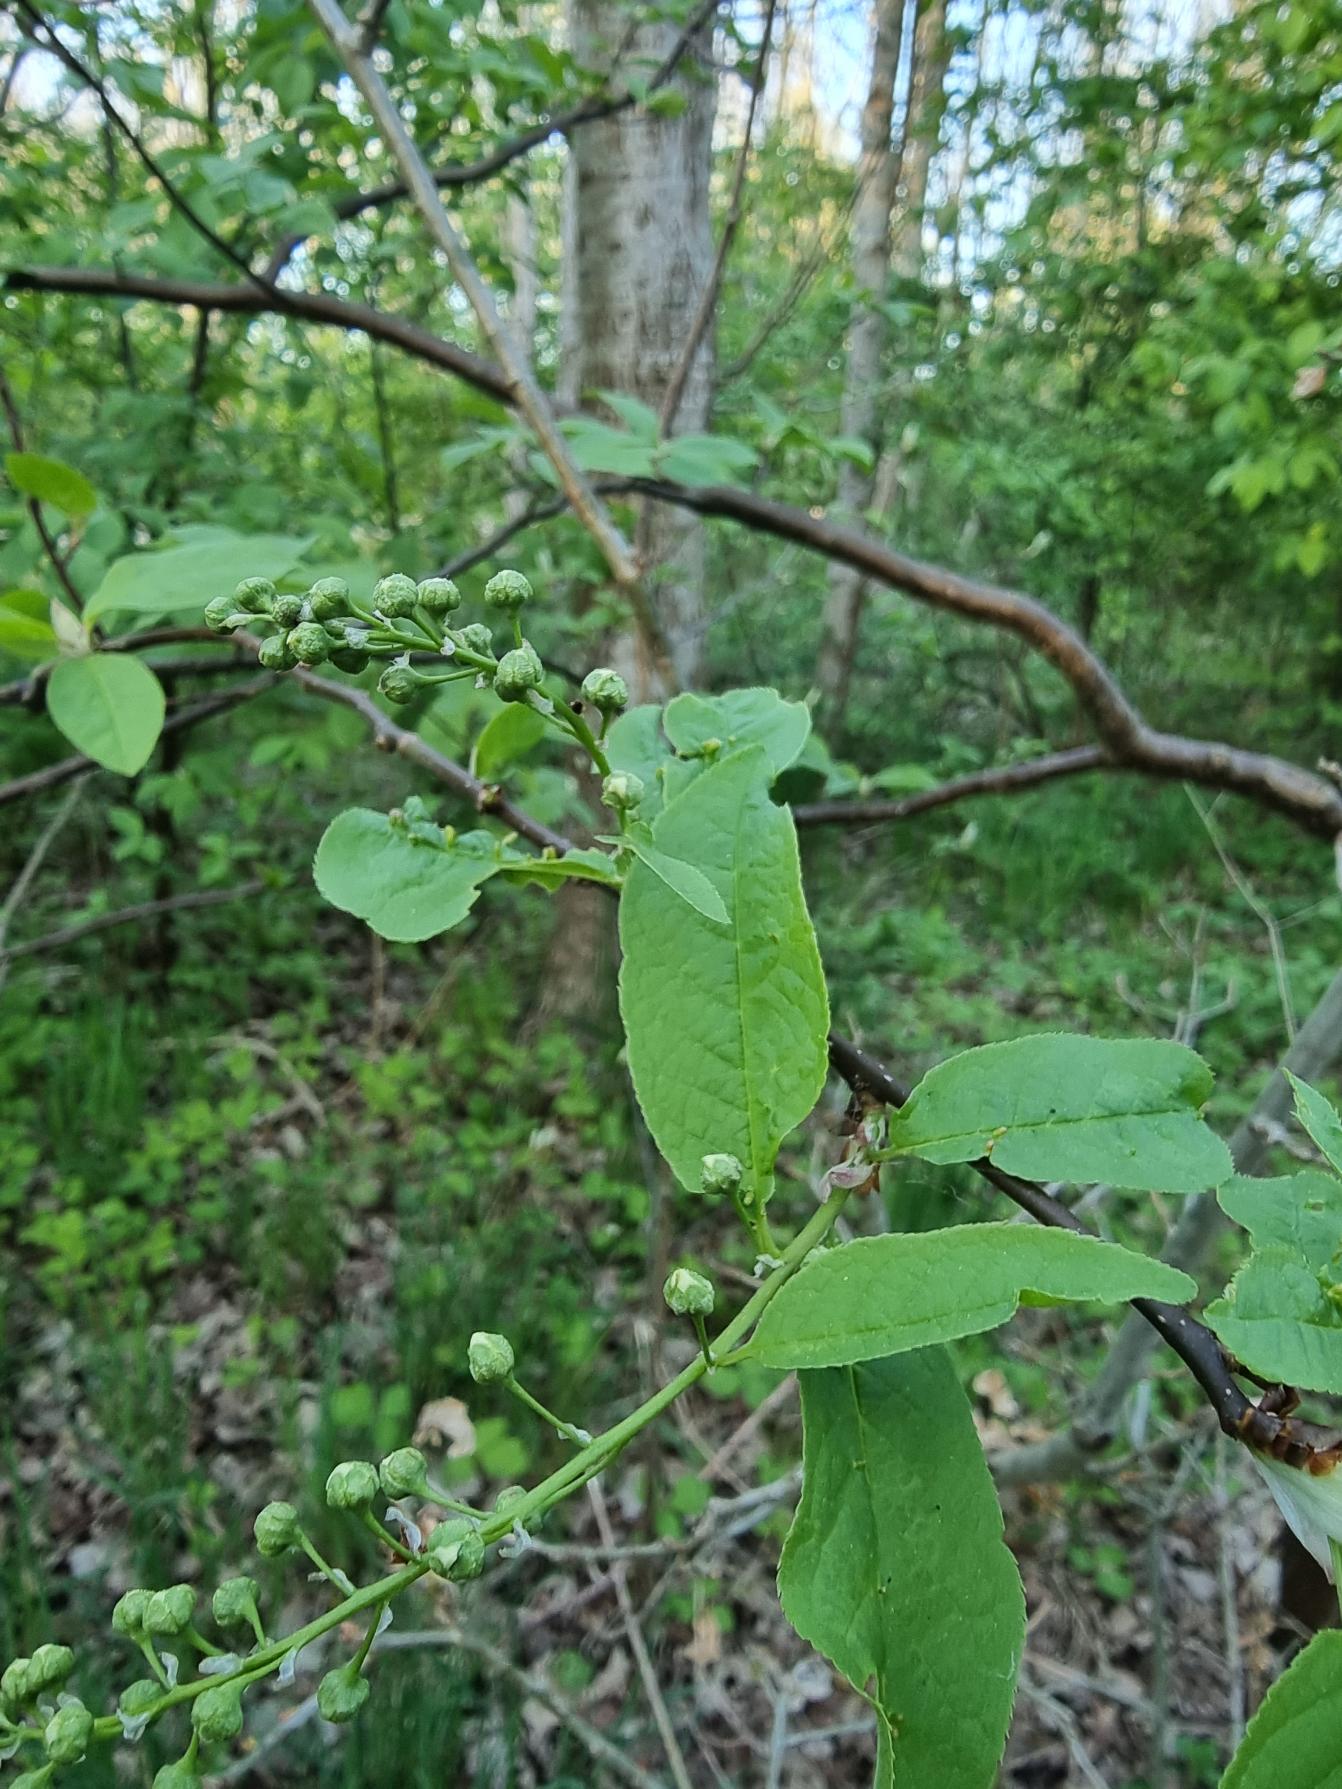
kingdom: Plantae
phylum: Tracheophyta
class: Magnoliopsida
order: Rosales
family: Rosaceae
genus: Prunus
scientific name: Prunus padus
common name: Almindelig hæg
